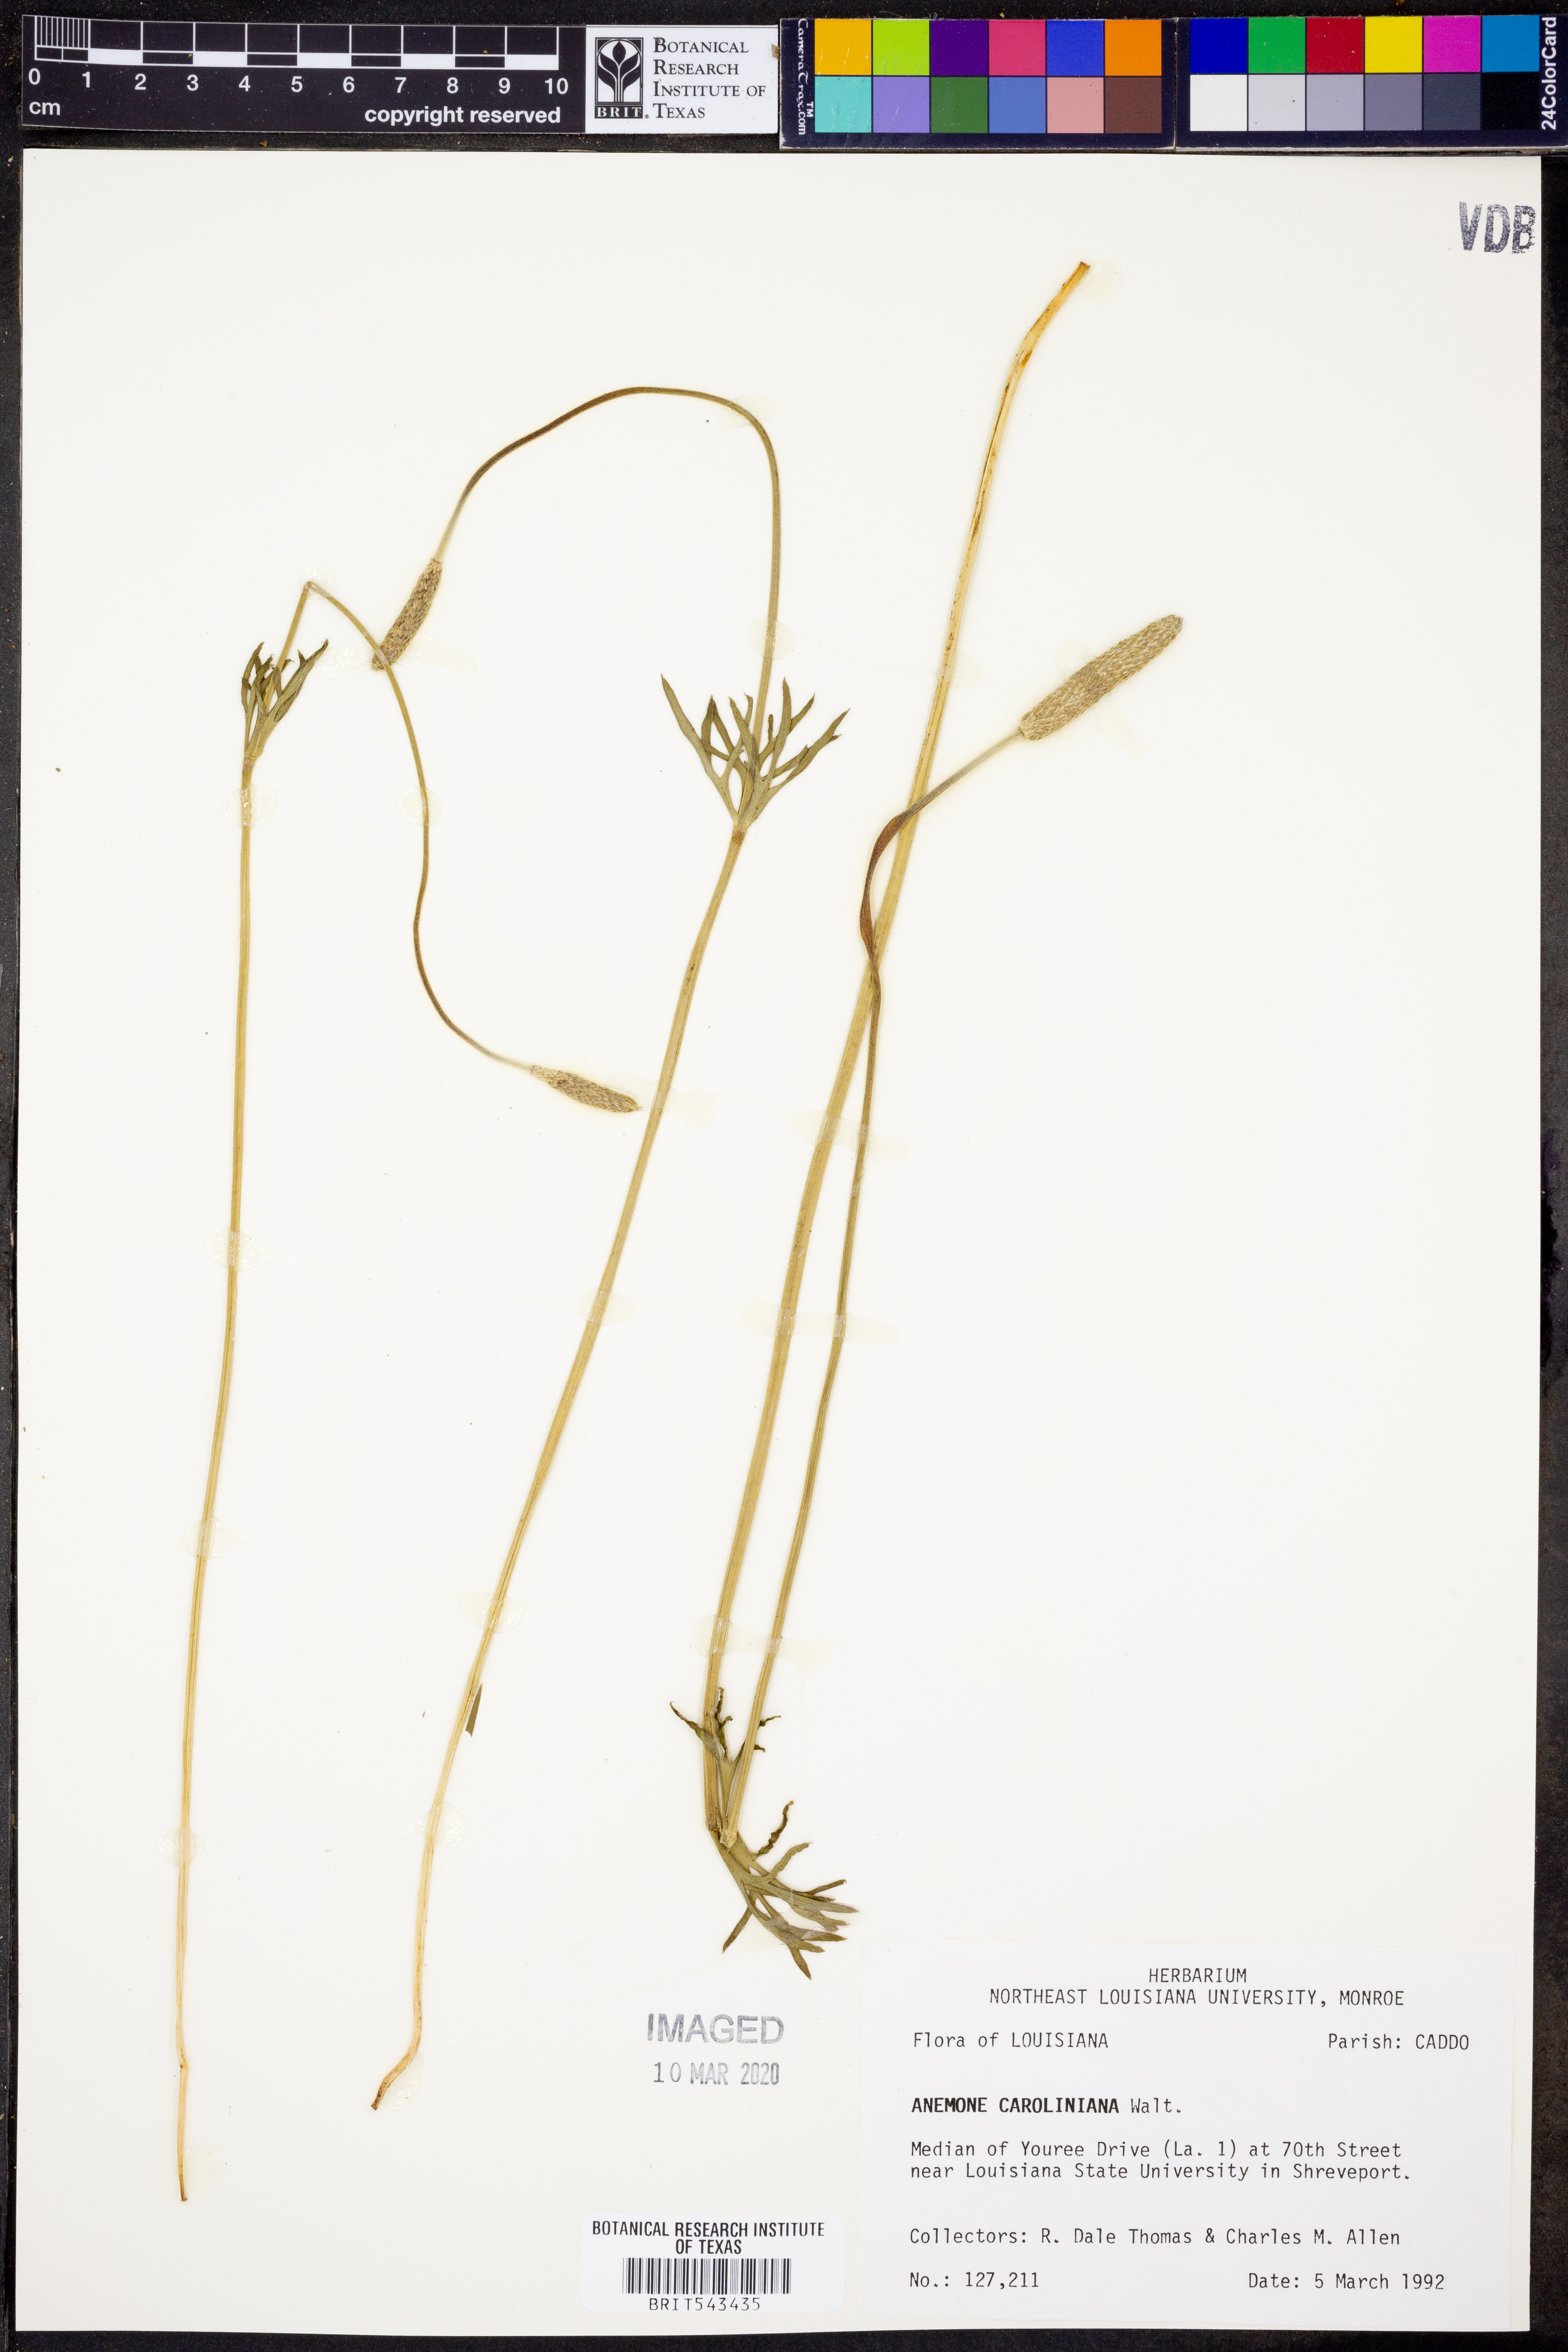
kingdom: Plantae
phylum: Tracheophyta
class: Magnoliopsida
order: Ranunculales
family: Ranunculaceae
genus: Anemone
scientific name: Anemone caroliniana
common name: Carolina anemone
